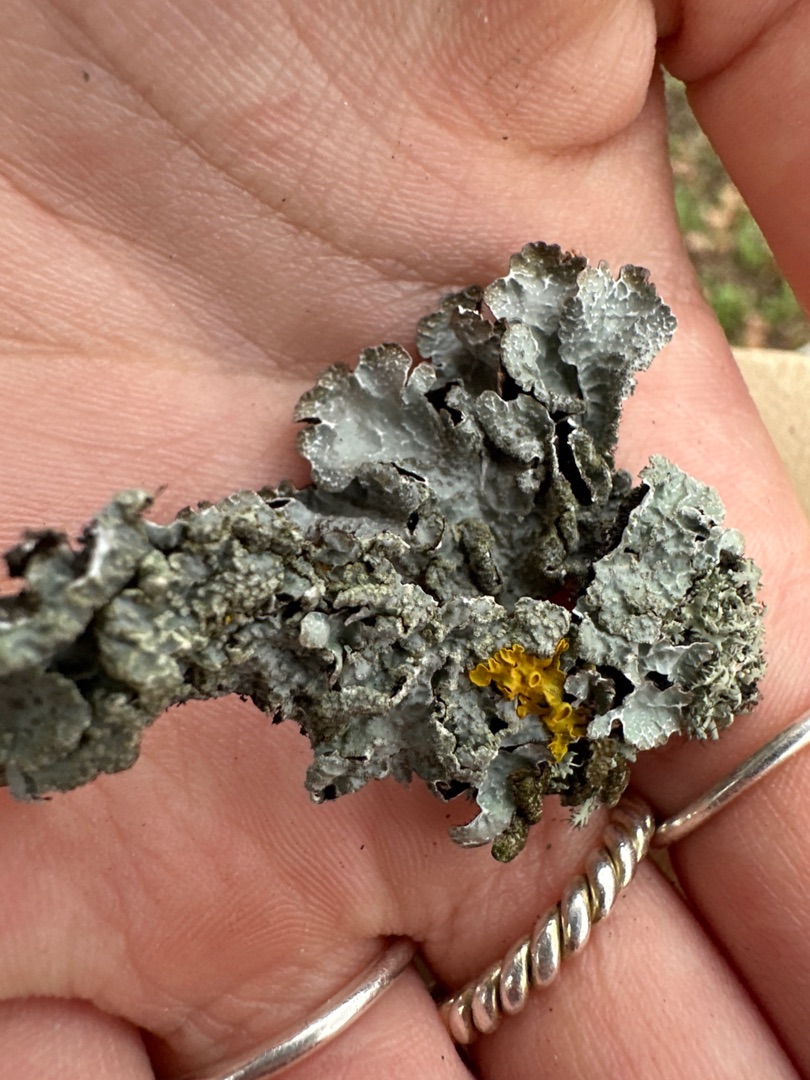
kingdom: Fungi
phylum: Ascomycota
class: Lecanoromycetes
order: Lecanorales
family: Parmeliaceae
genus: Parmelia
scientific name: Parmelia sulcata
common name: Rynket skållav
